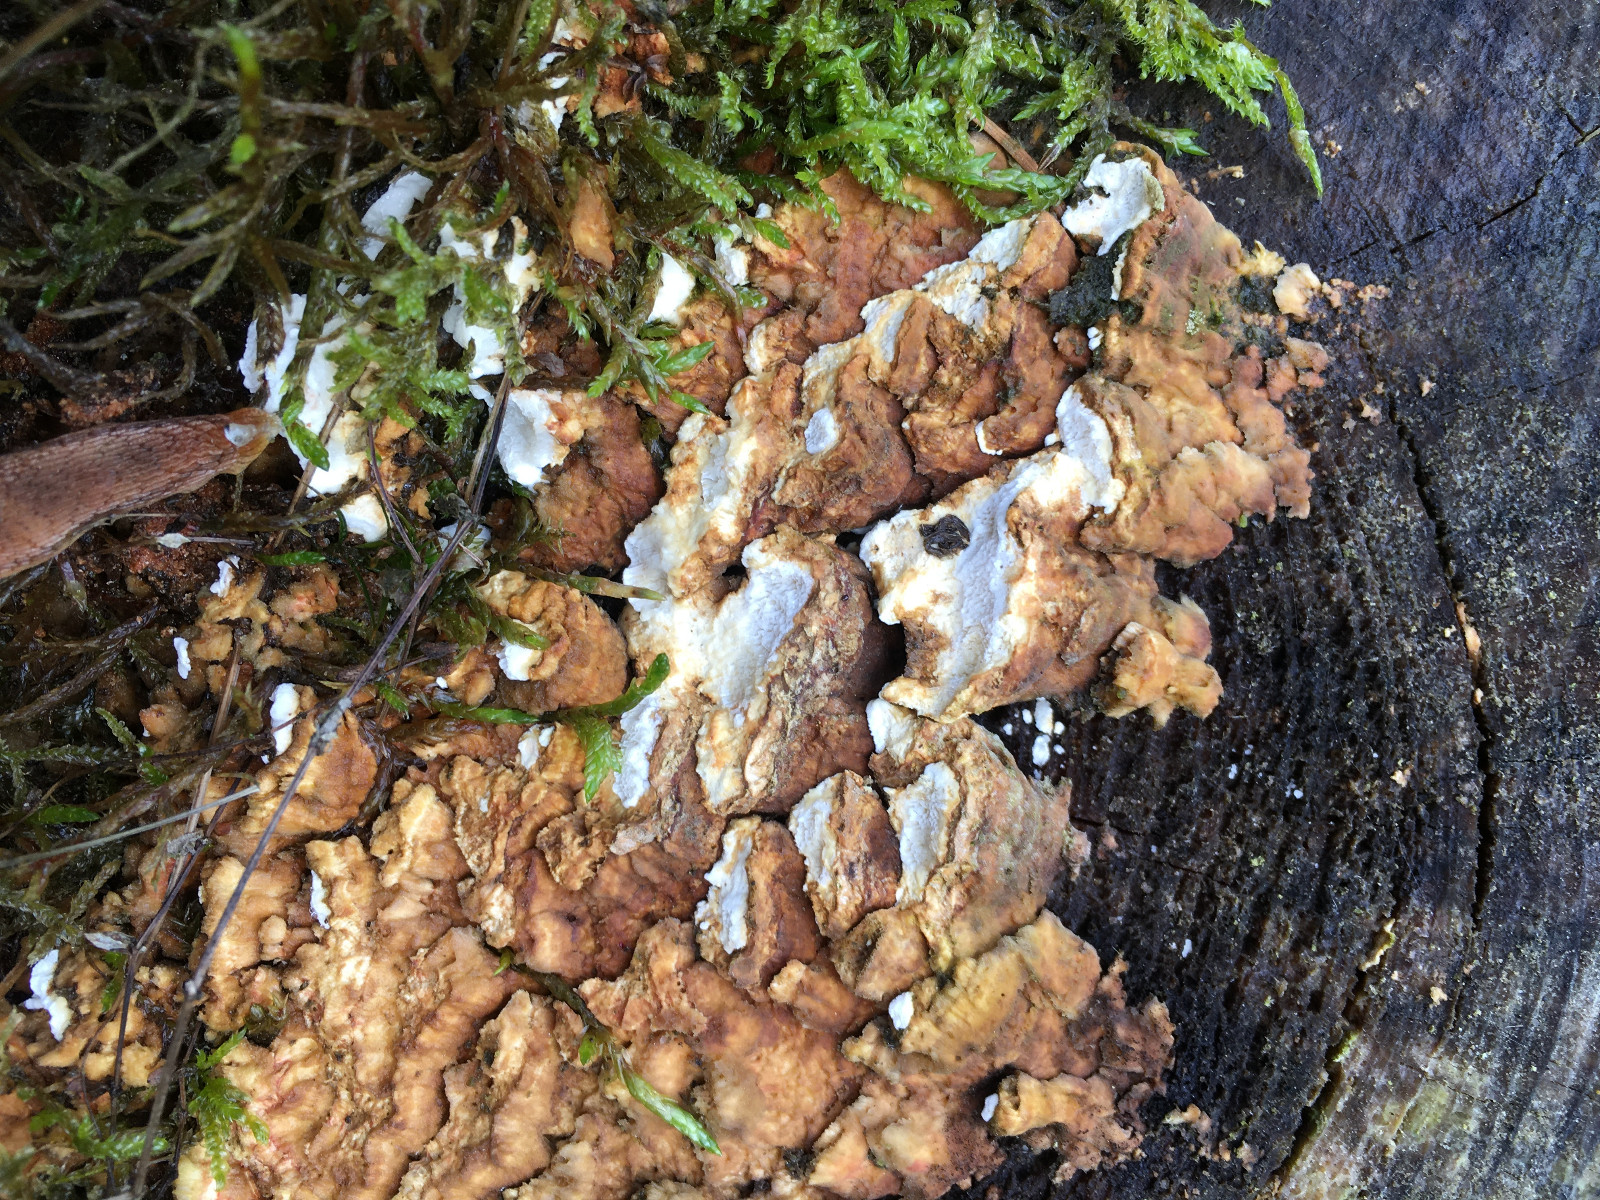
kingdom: Fungi
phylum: Basidiomycota
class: Agaricomycetes
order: Polyporales
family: Fomitopsidaceae
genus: Neoantrodia
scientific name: Neoantrodia serialis
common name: række-sejporesvamp
